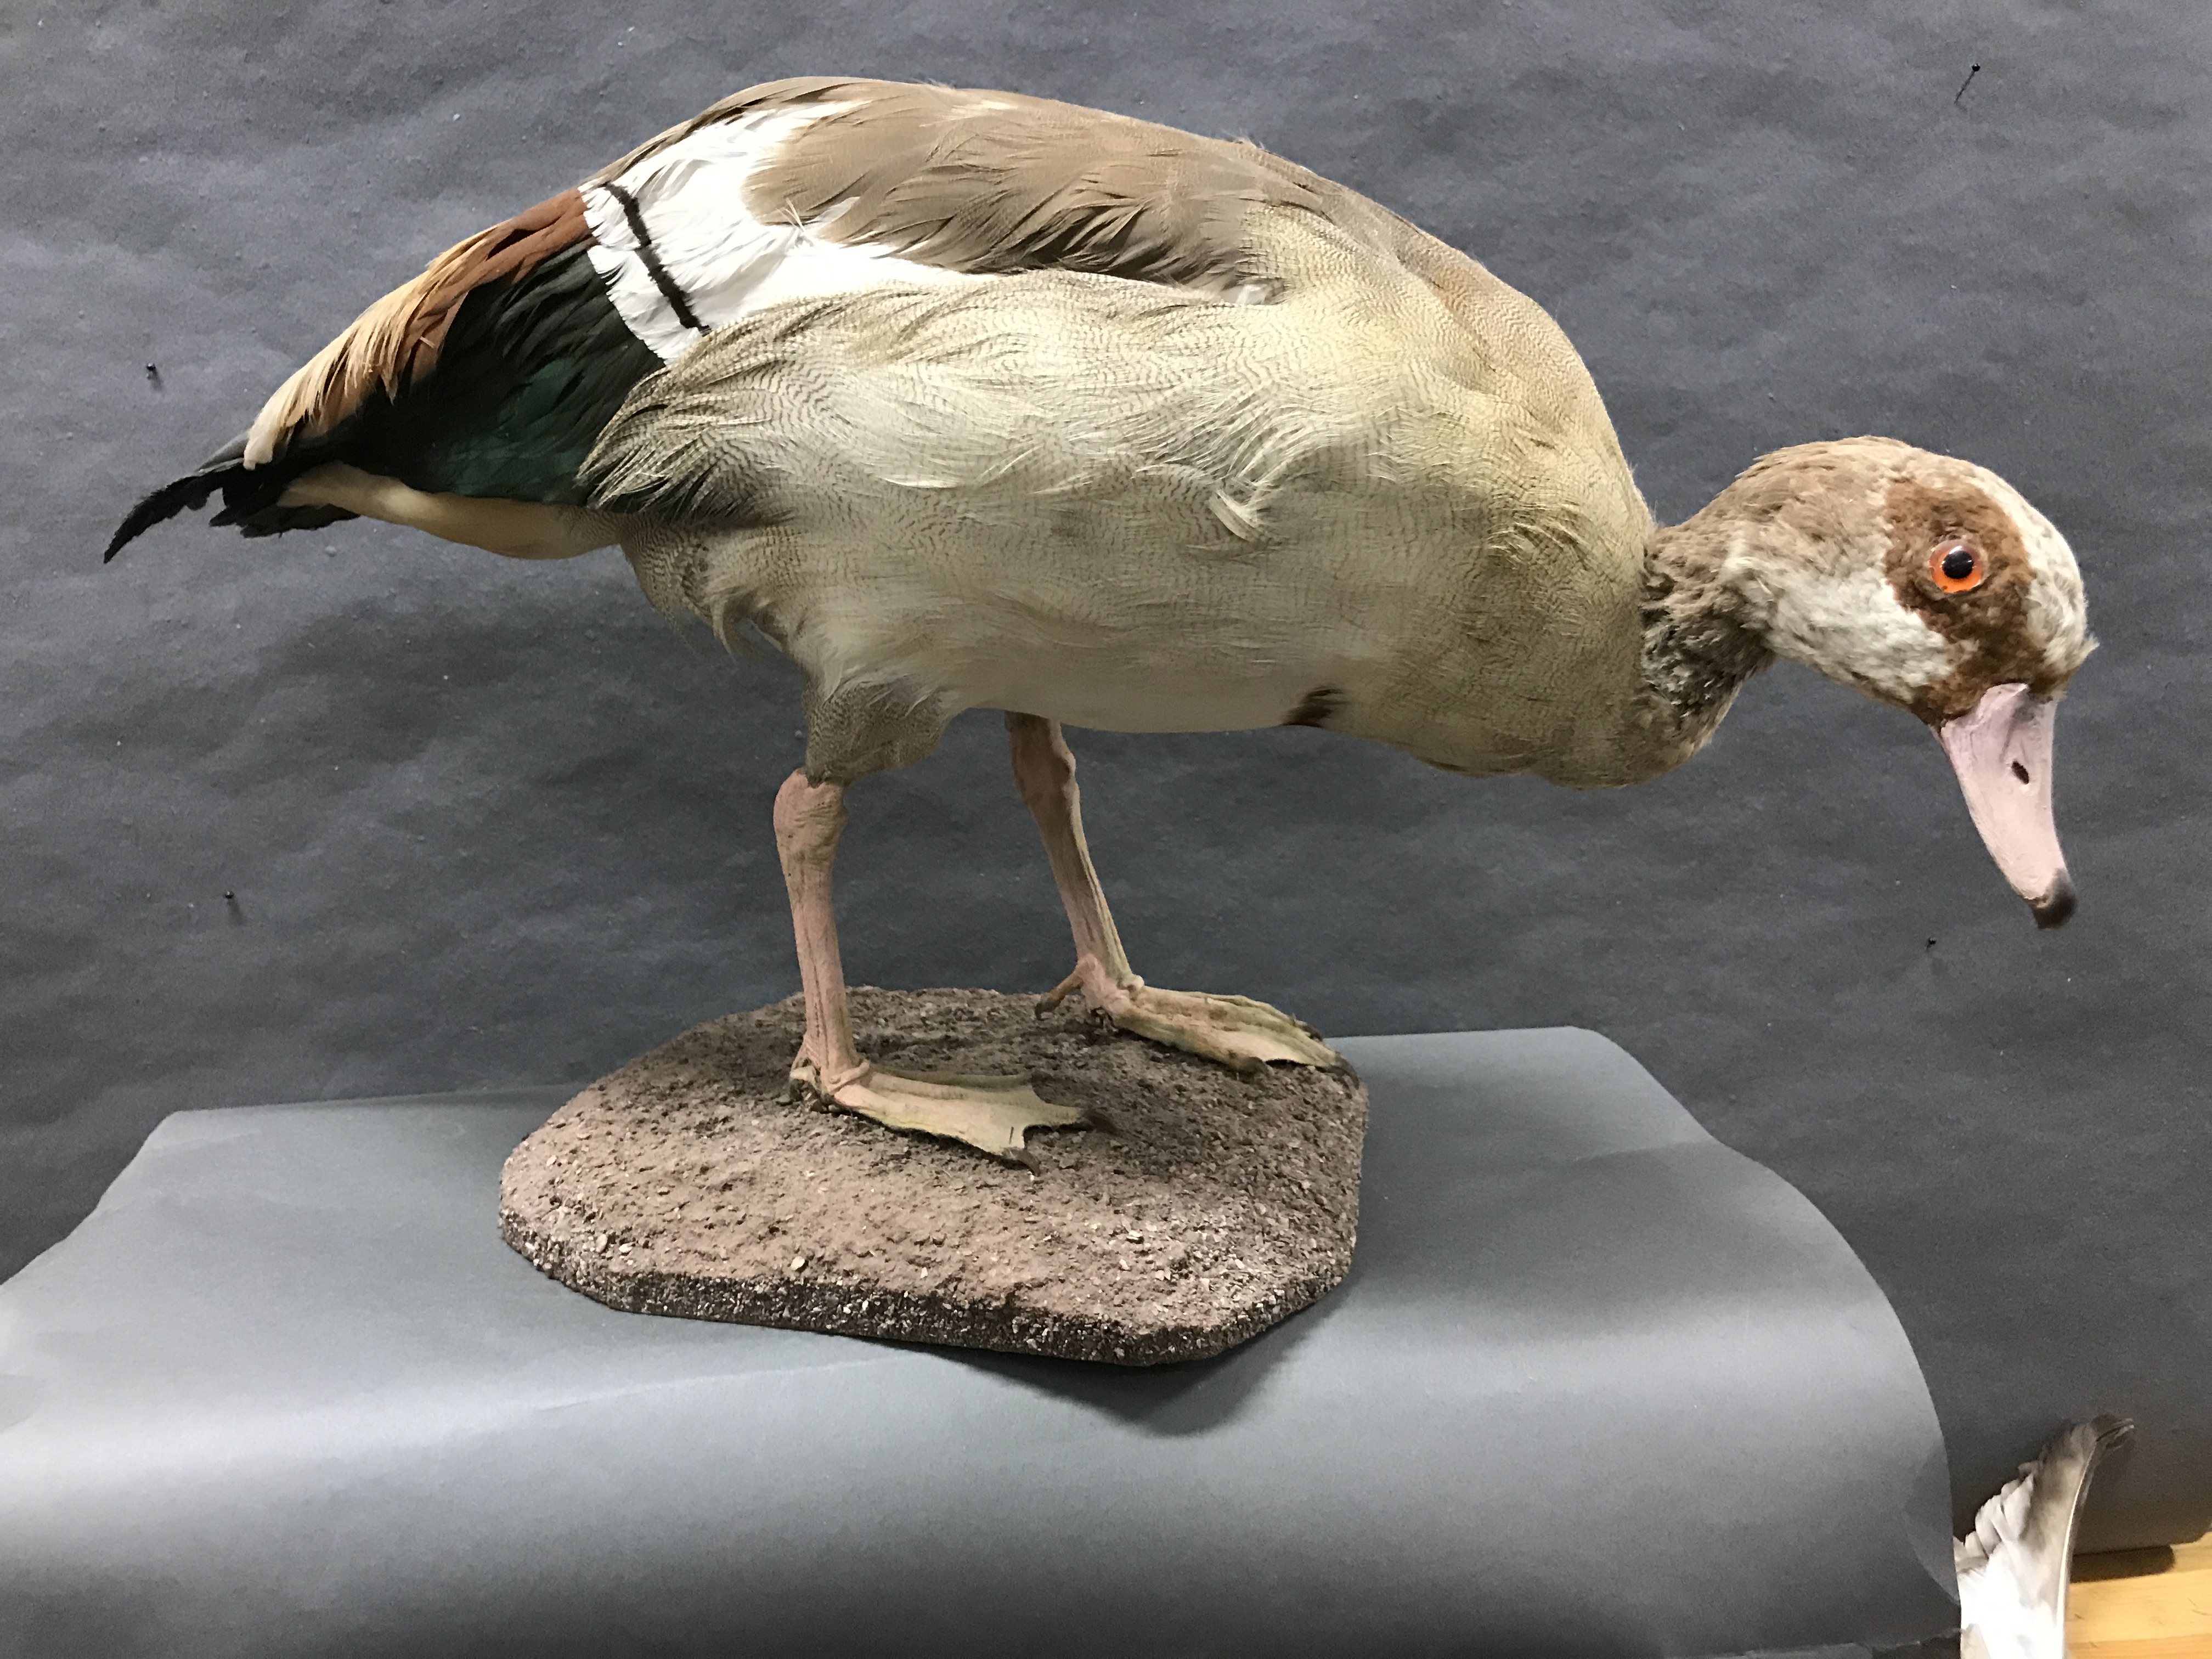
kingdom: Animalia
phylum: Chordata
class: Aves
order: Anseriformes
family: Anatidae
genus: Alopochen
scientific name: Alopochen aegyptiaca
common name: Egyptian goose
